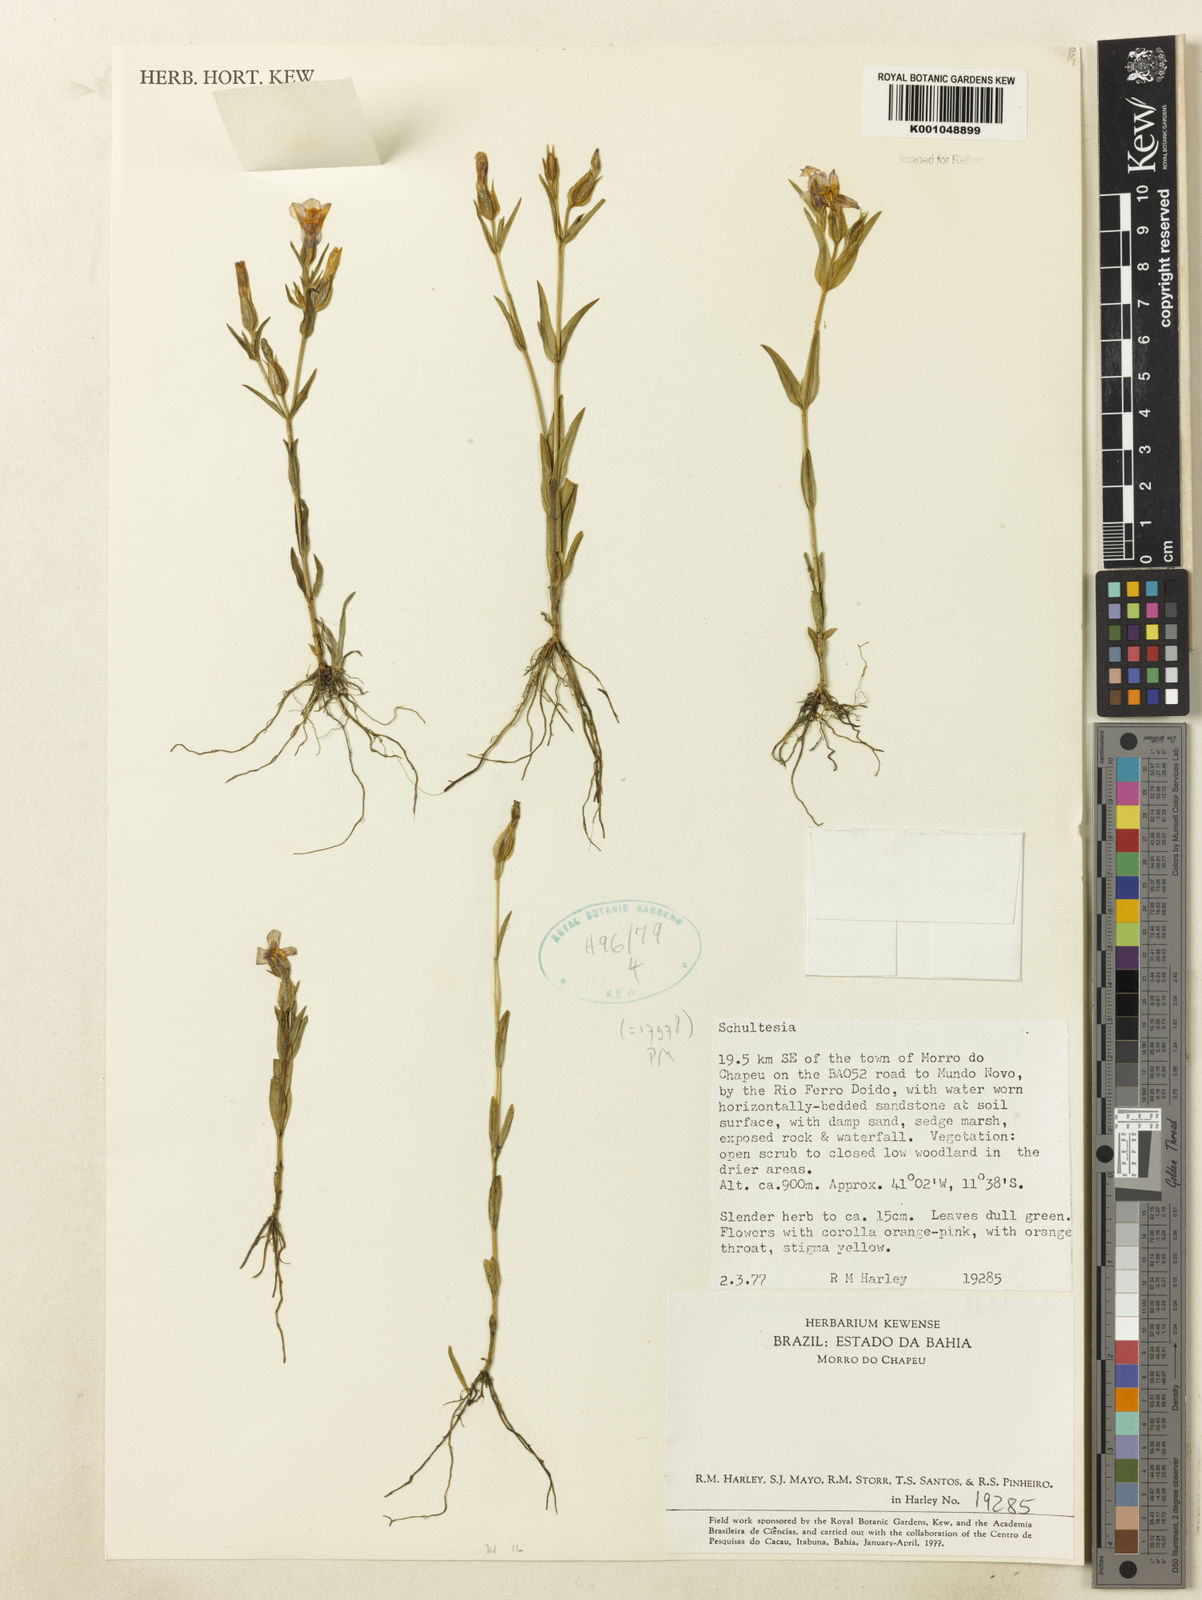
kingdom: Plantae
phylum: Tracheophyta
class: Magnoliopsida
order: Gentianales
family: Gentianaceae
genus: Schultesia
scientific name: Schultesia
